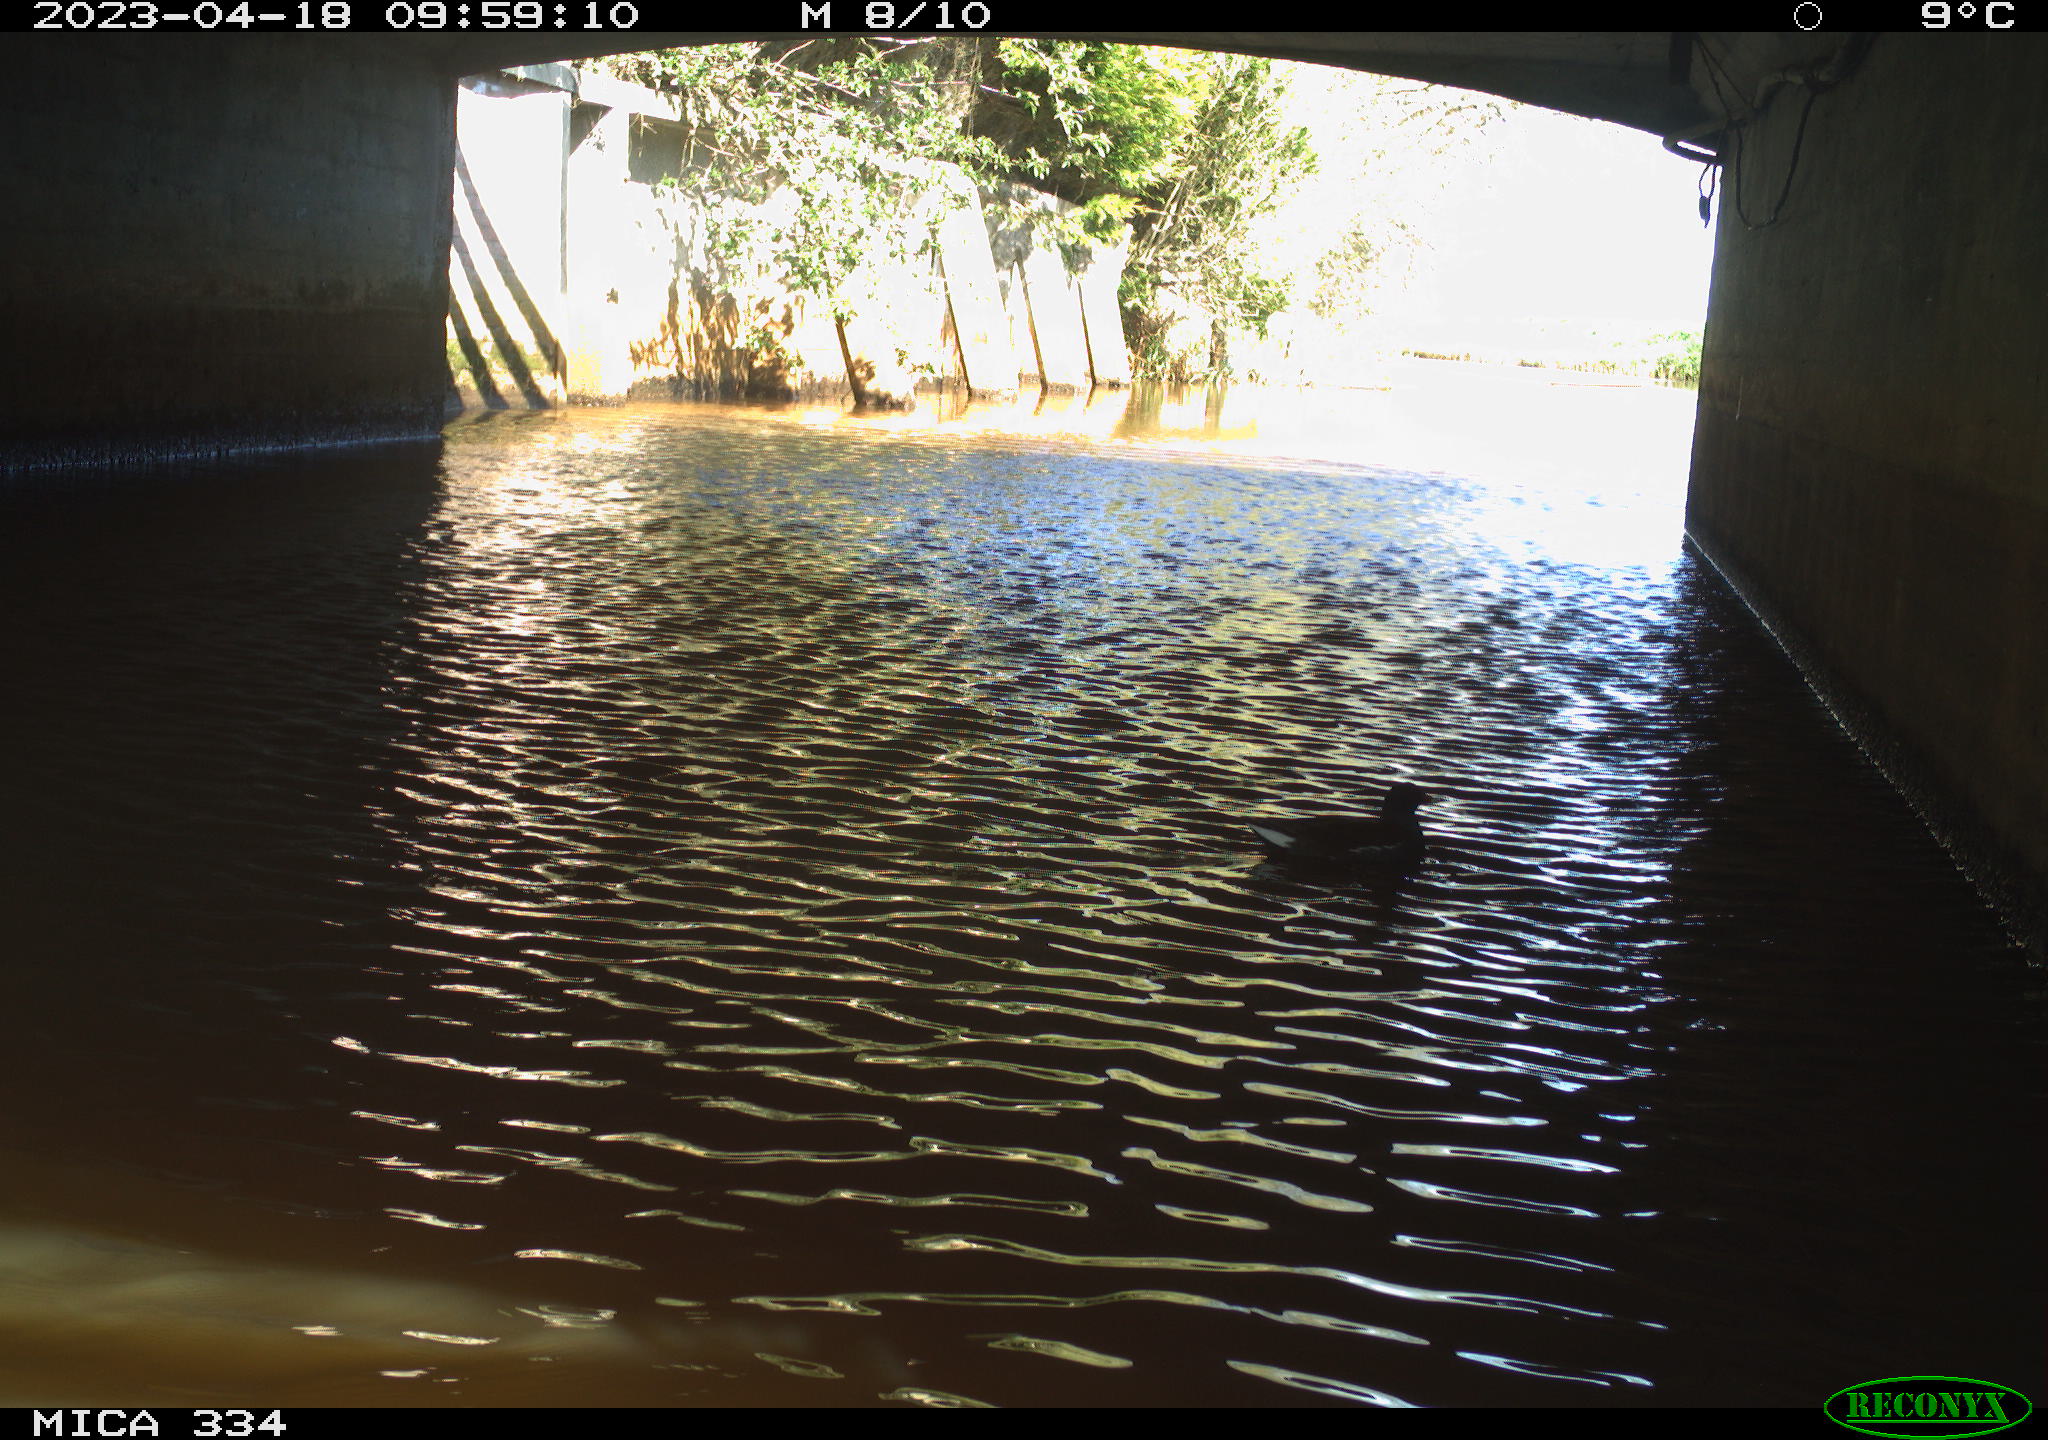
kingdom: Animalia
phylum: Chordata
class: Aves
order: Gruiformes
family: Rallidae
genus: Gallinula
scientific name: Gallinula chloropus
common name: Common moorhen
